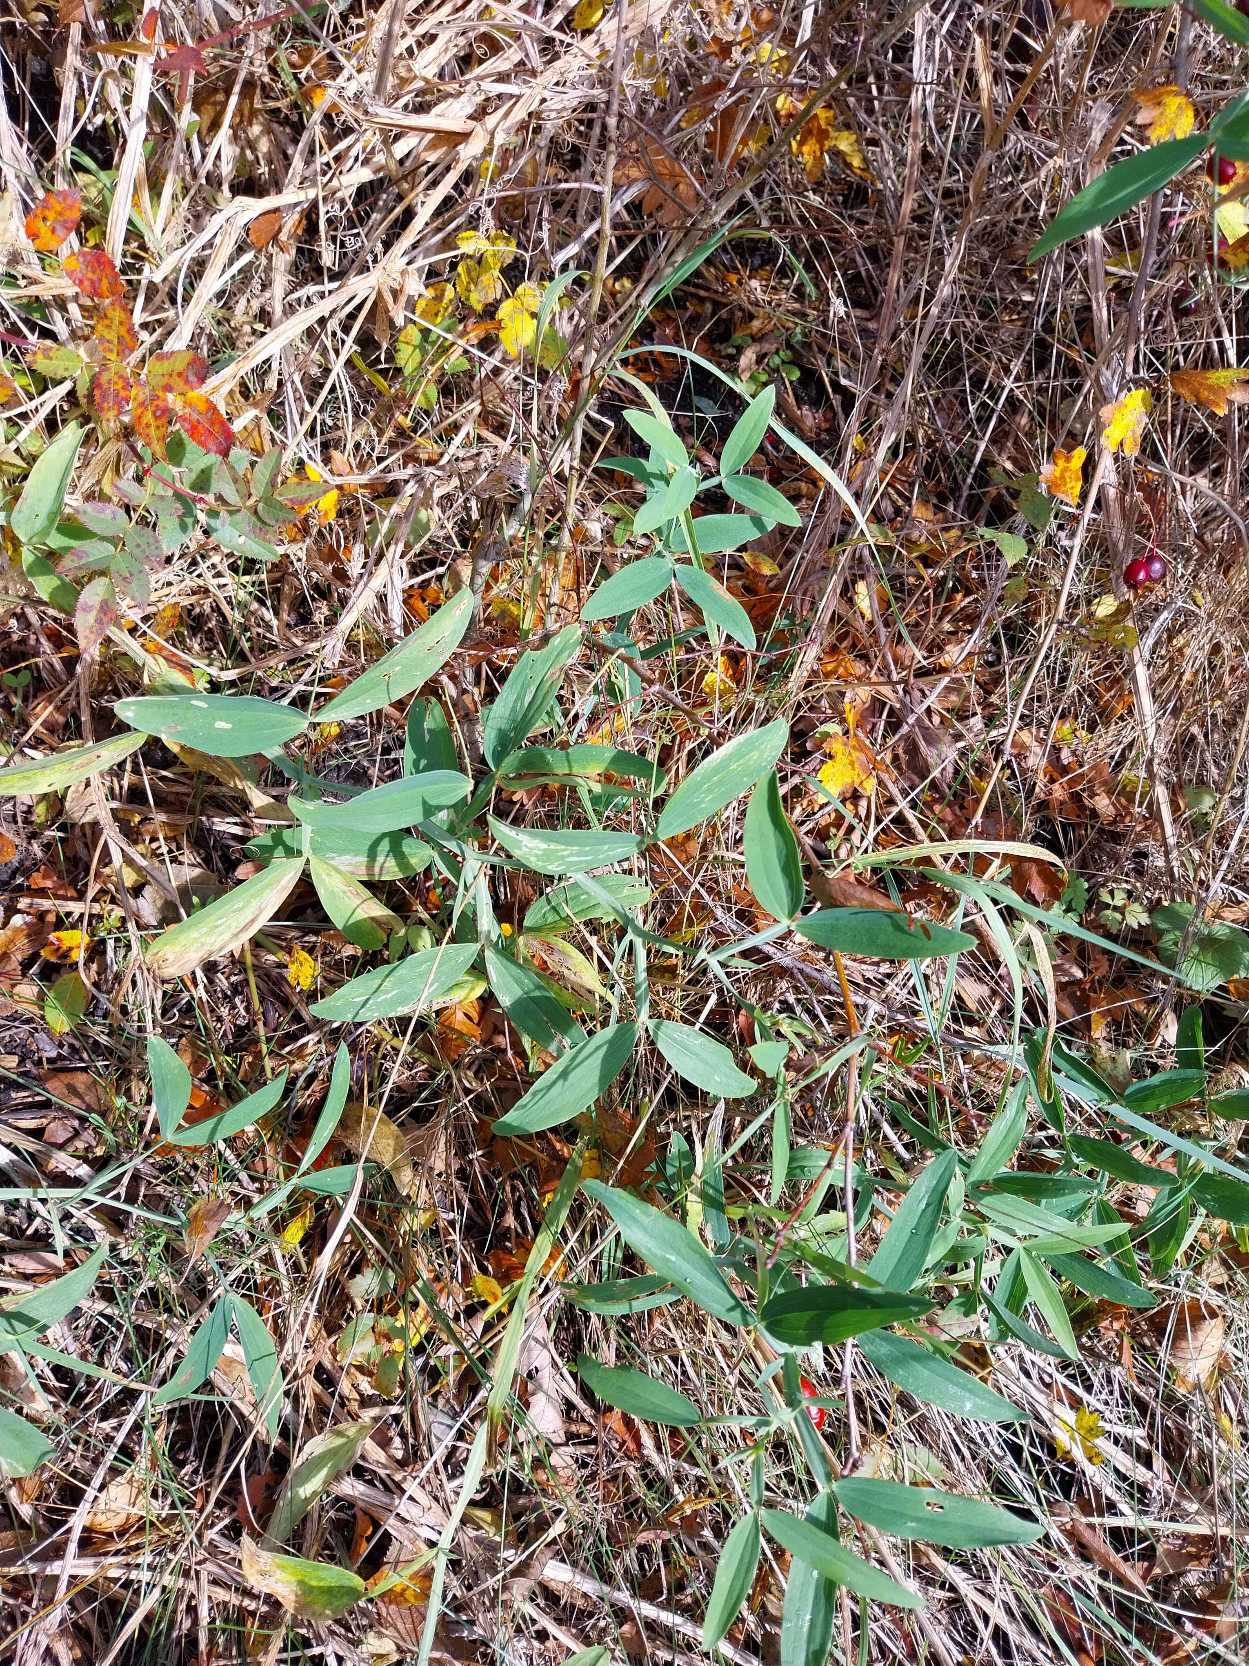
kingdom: Plantae
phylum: Tracheophyta
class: Magnoliopsida
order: Fabales
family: Fabaceae
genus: Lathyrus
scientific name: Lathyrus latifolius
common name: Flerårig ærteblomst
